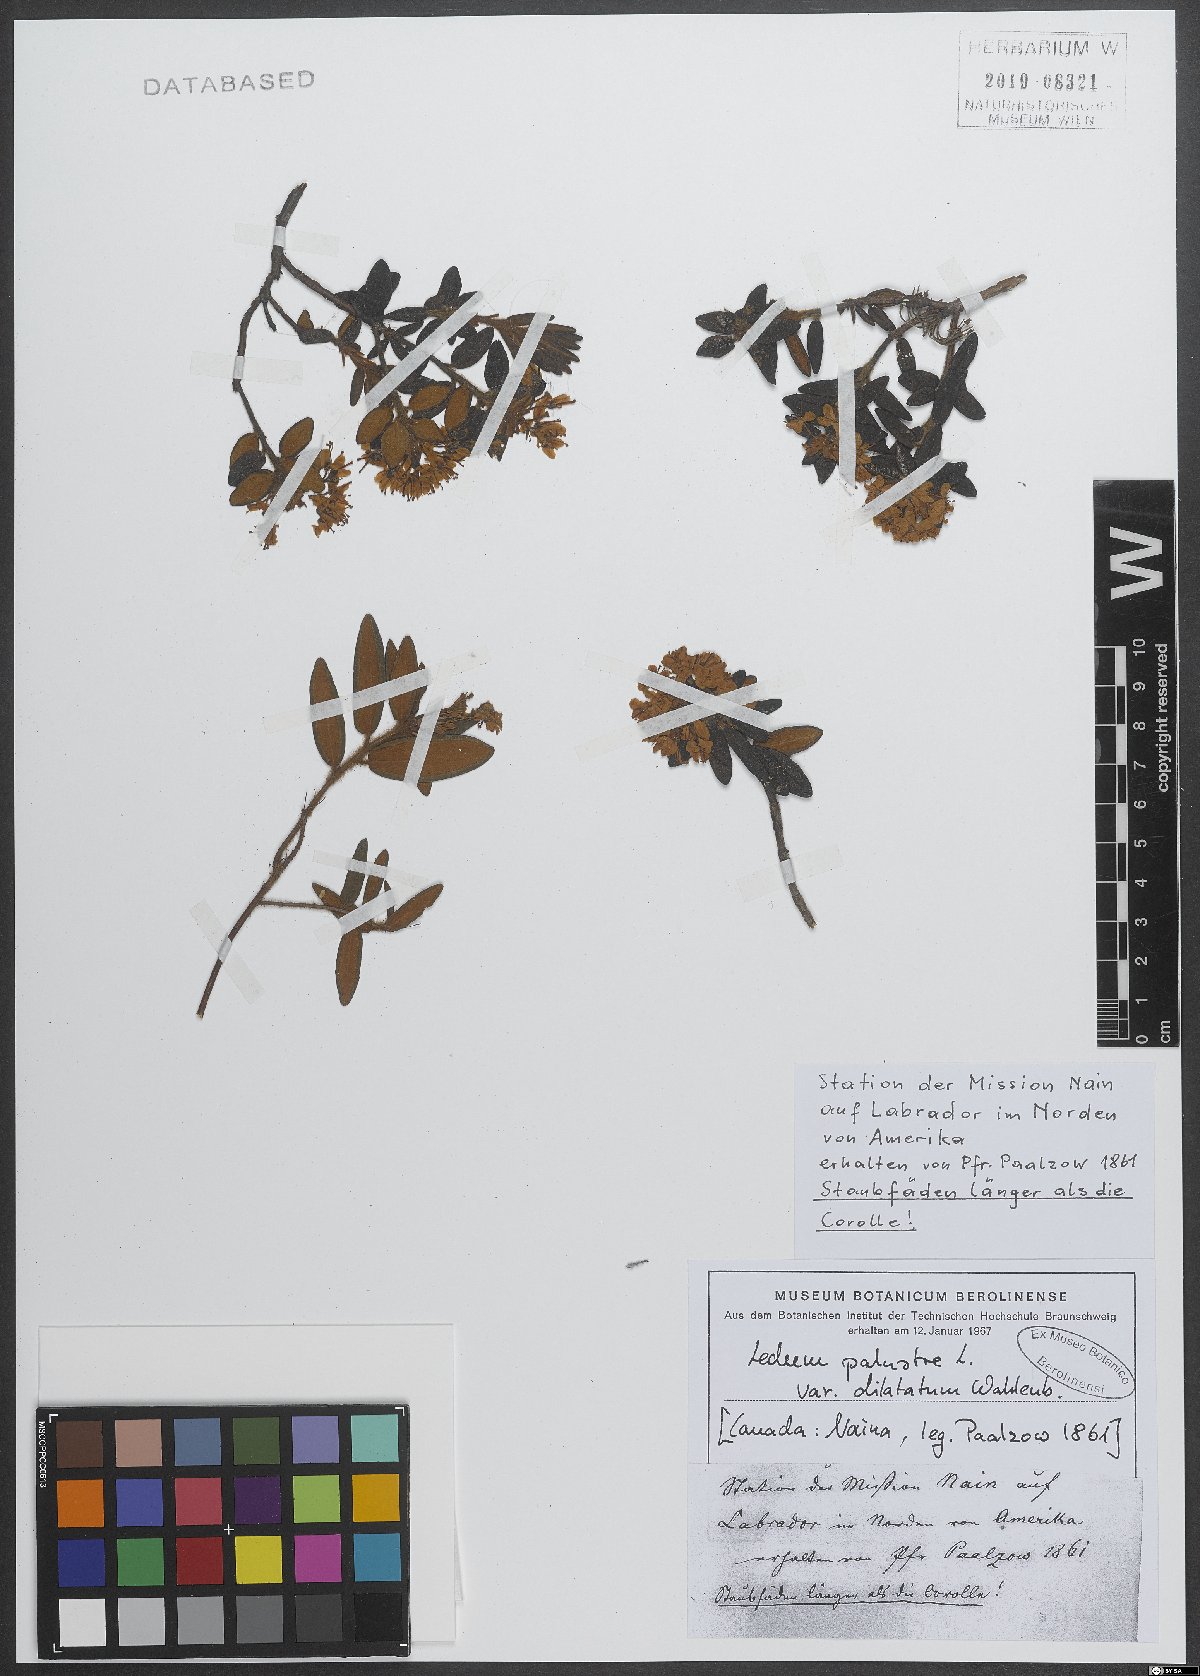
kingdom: Plantae
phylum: Tracheophyta
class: Magnoliopsida
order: Ericales
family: Ericaceae
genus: Rhododendron
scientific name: Rhododendron tomentosum
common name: Marsh labrador tea
